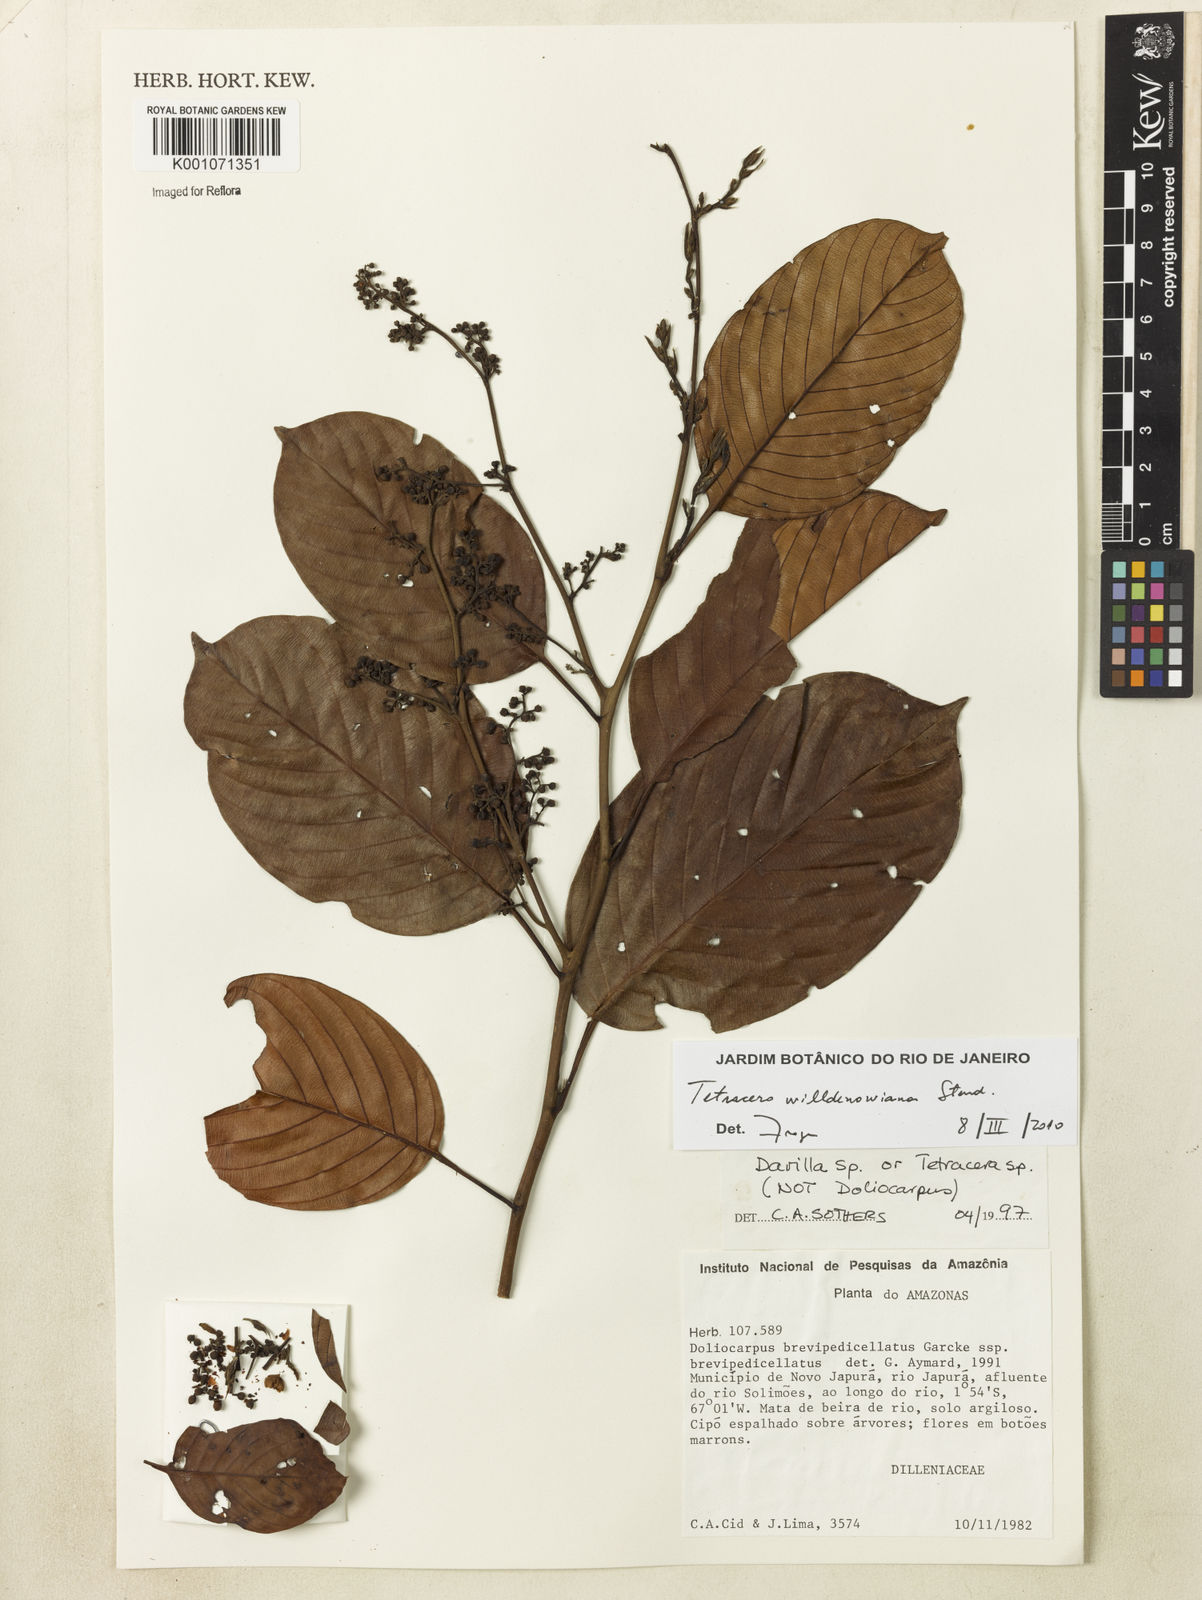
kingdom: Plantae
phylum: Tracheophyta
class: Magnoliopsida
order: Dilleniales
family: Dilleniaceae
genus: Tetracera
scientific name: Tetracera willdenowiana
